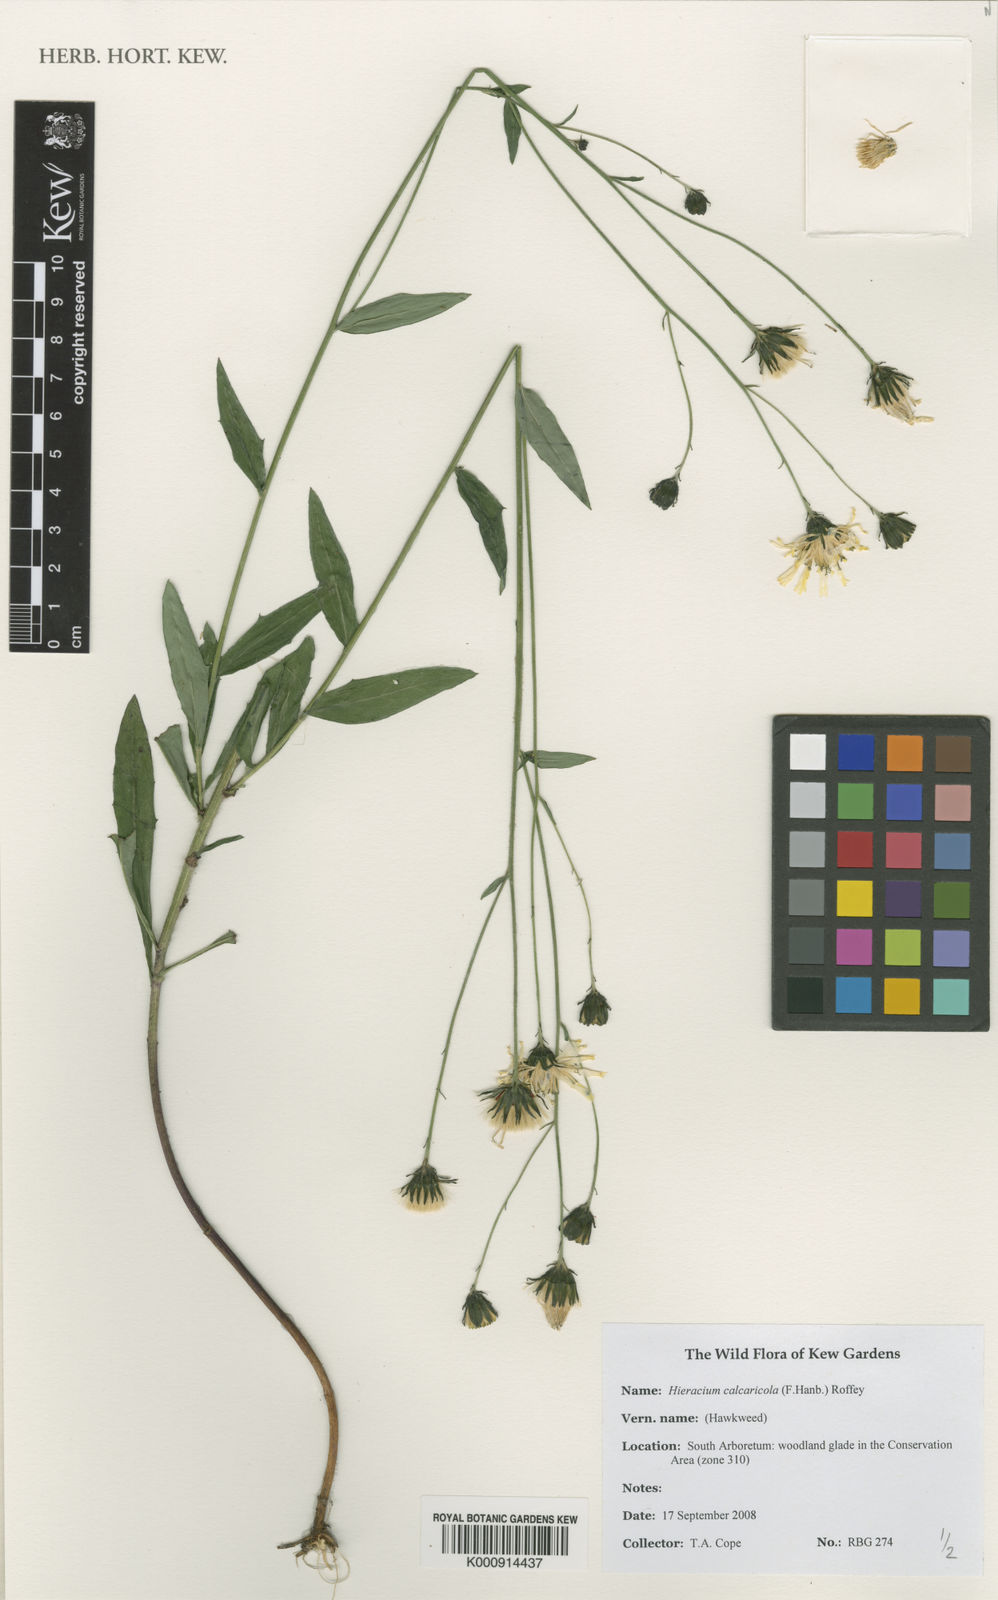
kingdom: Plantae
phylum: Tracheophyta
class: Magnoliopsida
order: Asterales
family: Asteraceae
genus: Hieracium
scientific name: Hieracium calcaricola
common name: Toothed hawkweed
